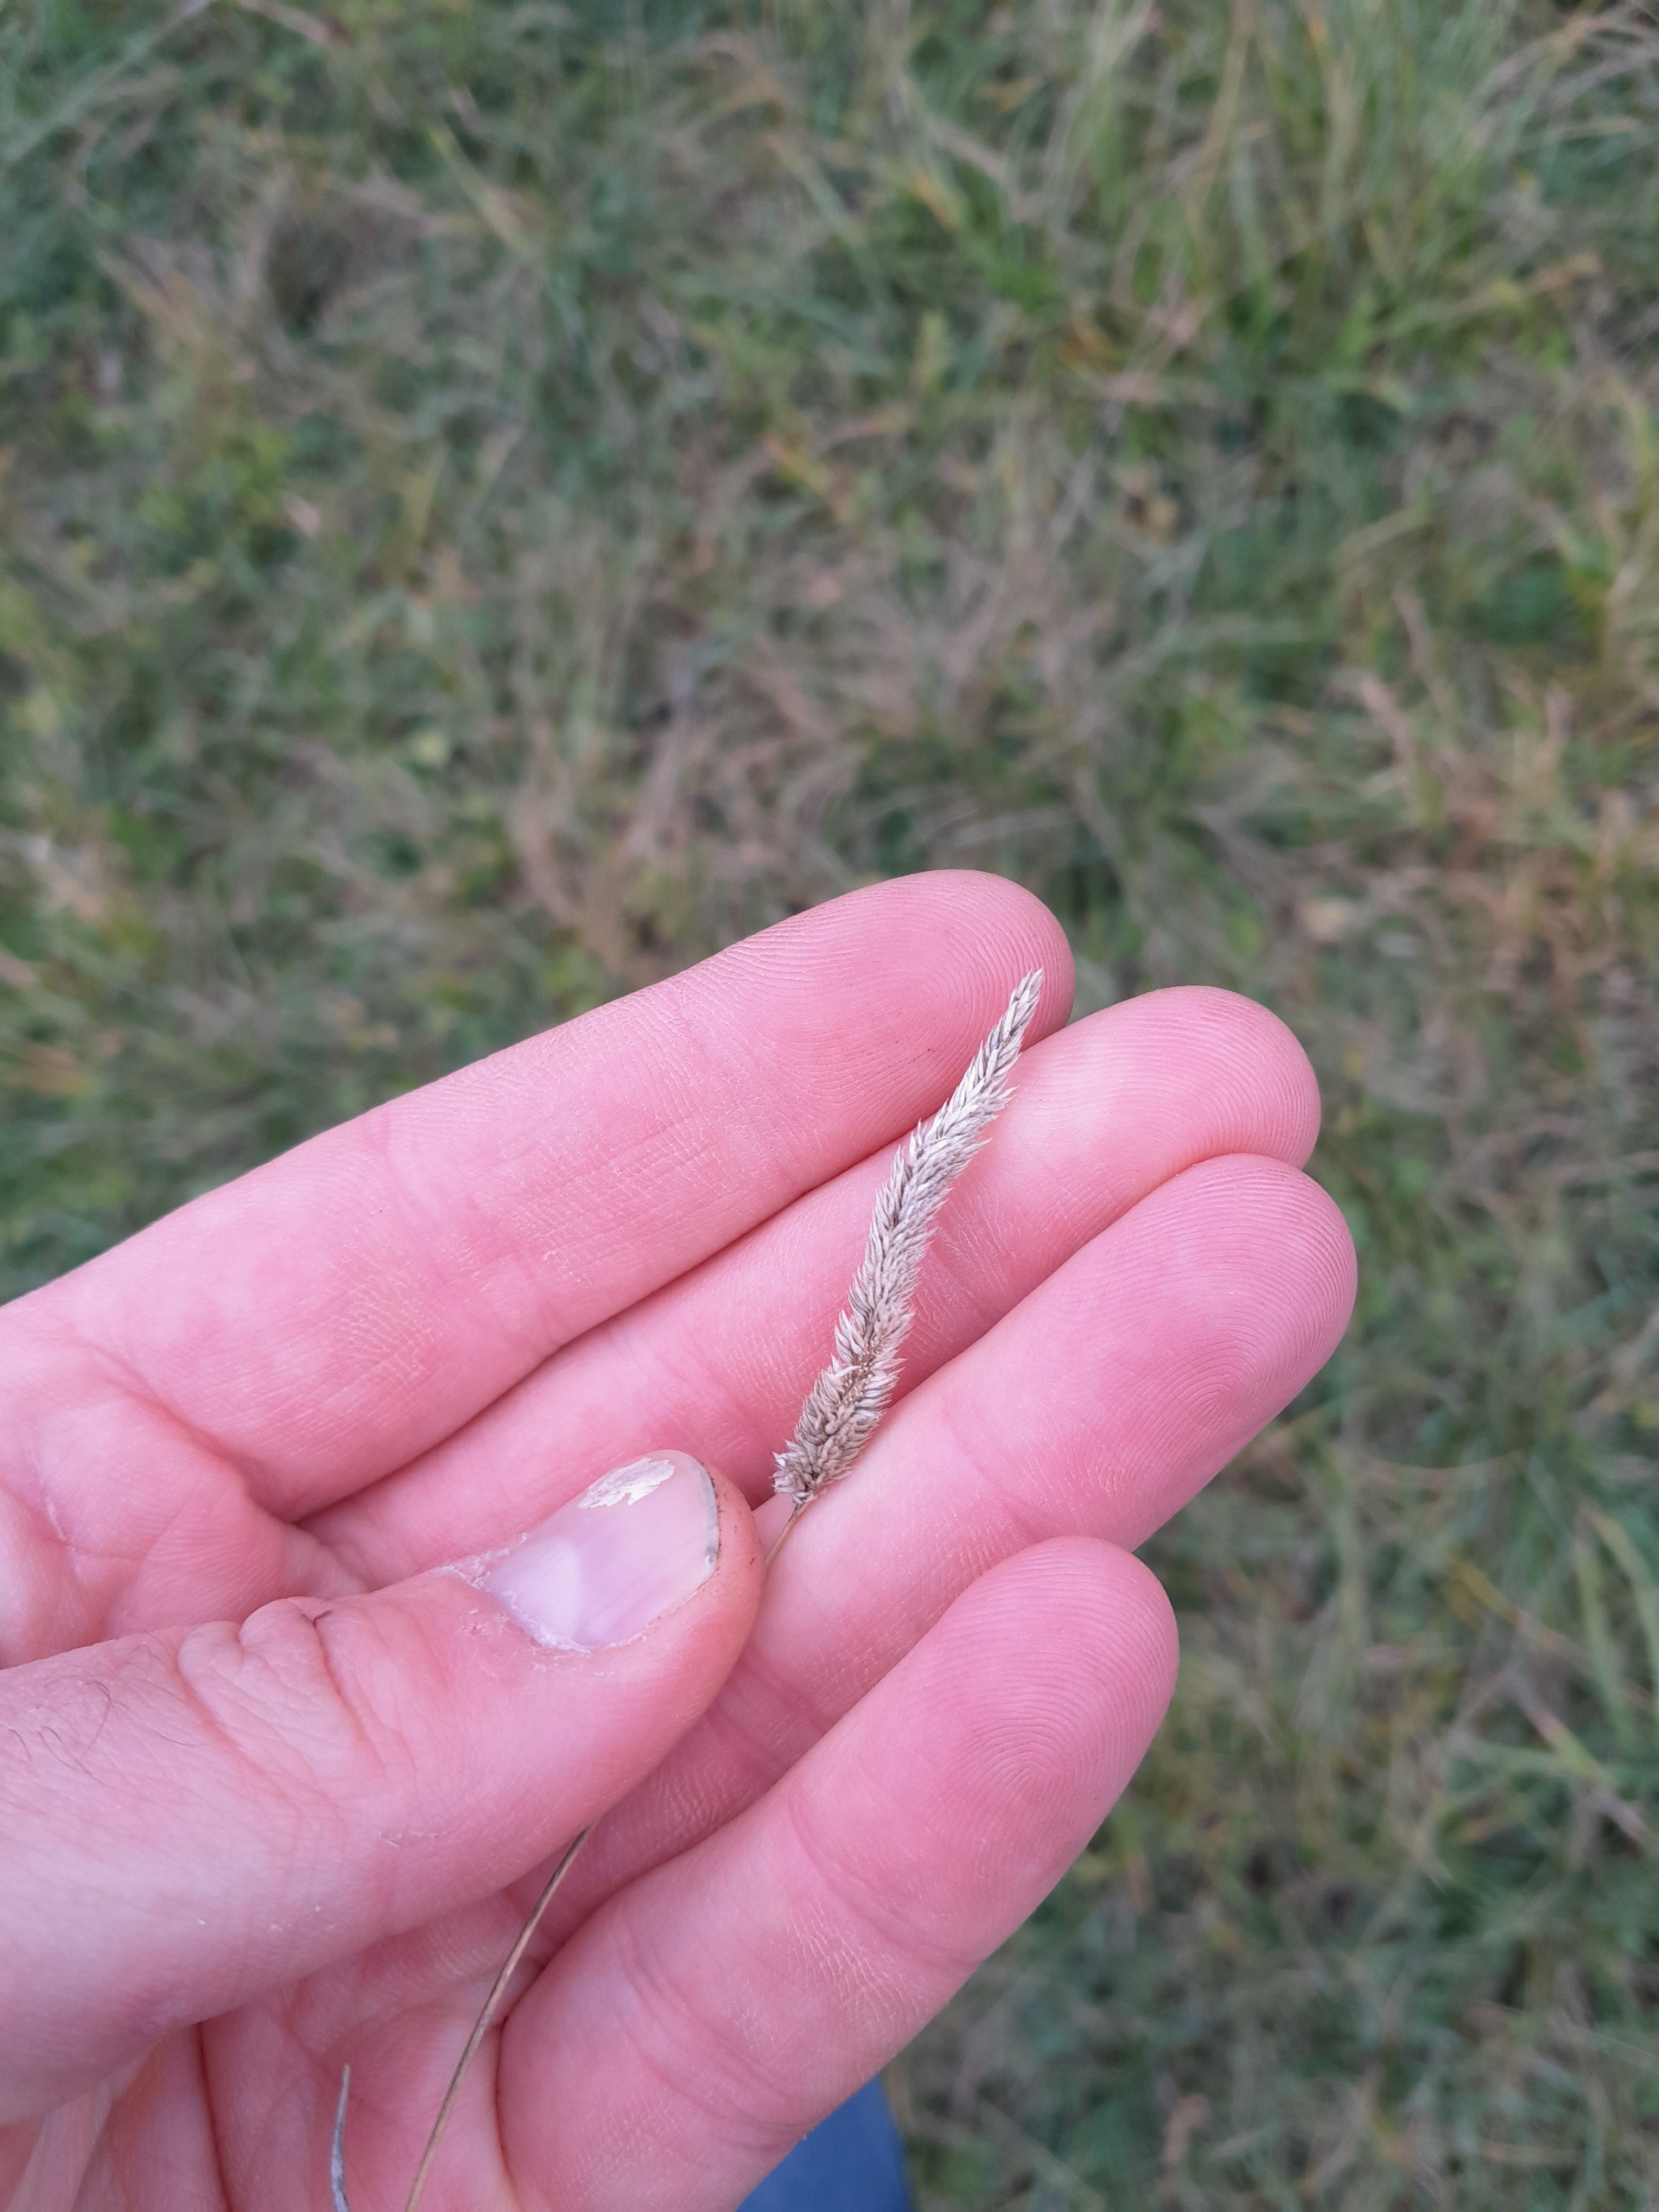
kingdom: Plantae
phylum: Tracheophyta
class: Liliopsida
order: Poales
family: Poaceae
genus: Phleum
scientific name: Phleum phleoides
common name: Glat rottehale
